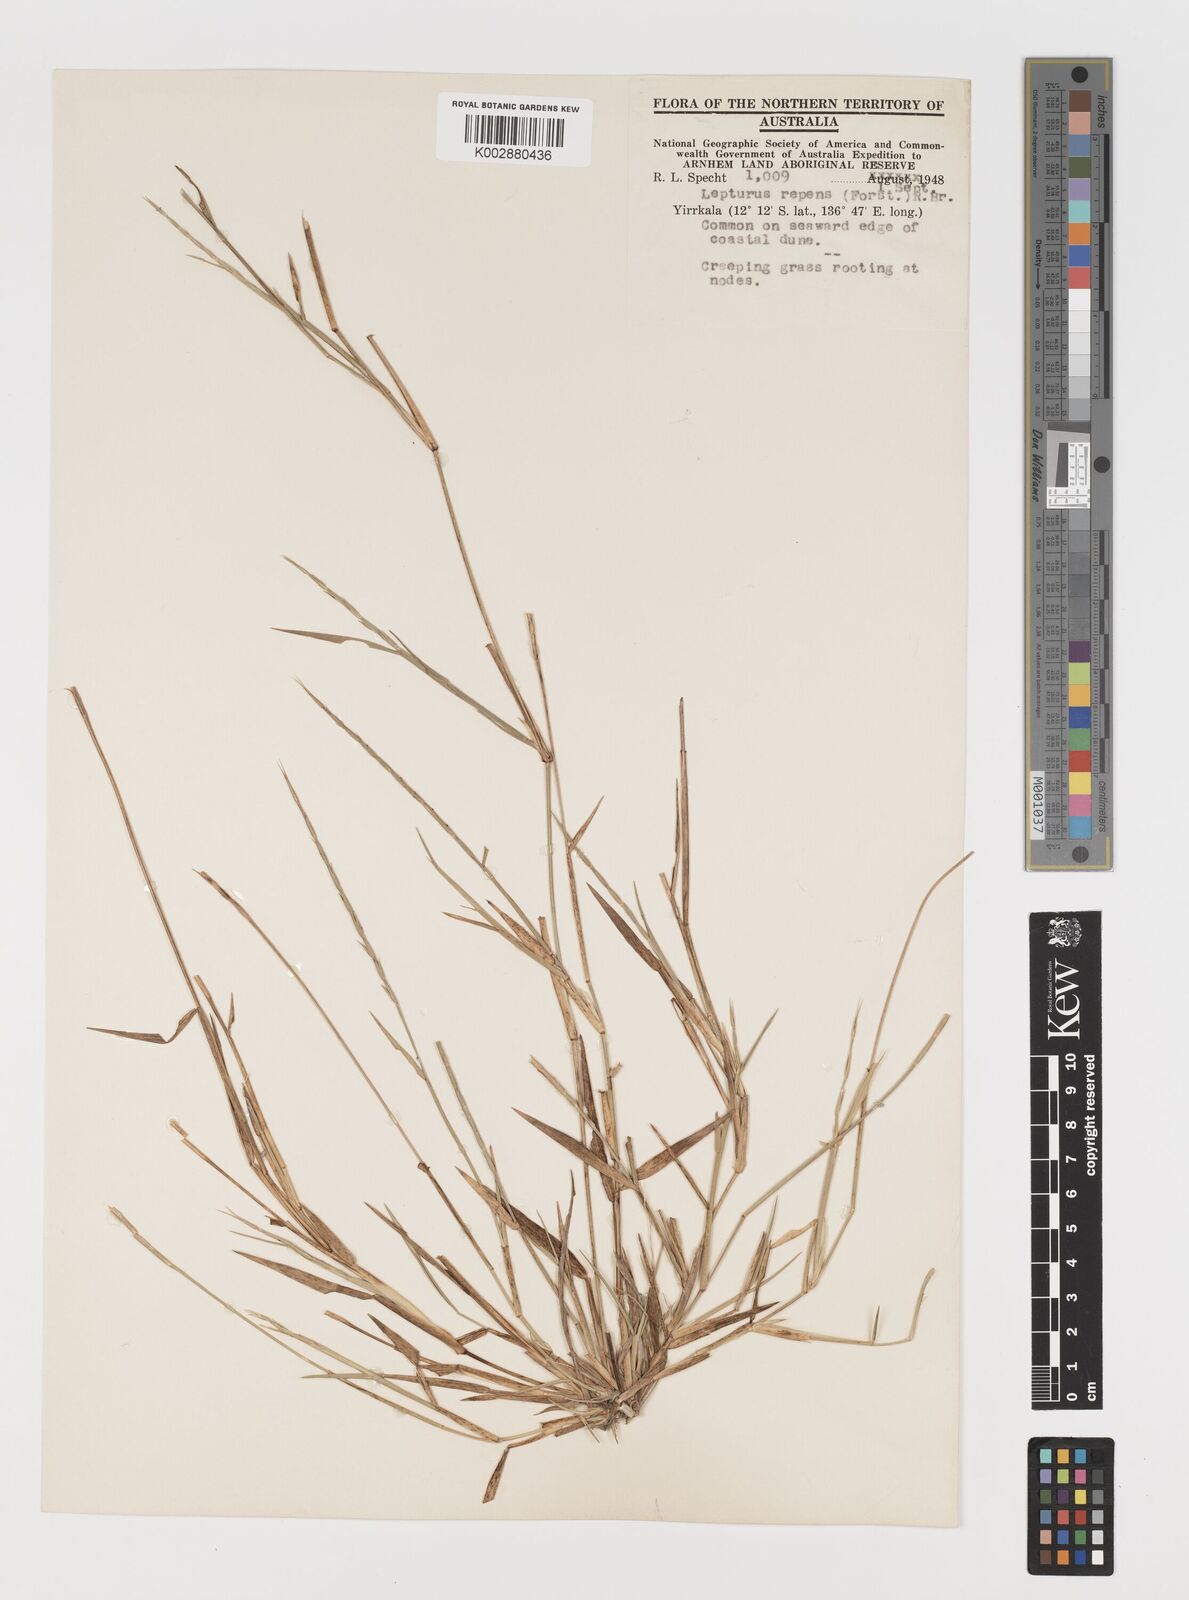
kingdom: Plantae
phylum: Tracheophyta
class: Liliopsida
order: Poales
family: Poaceae
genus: Lepturus
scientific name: Lepturus repens
